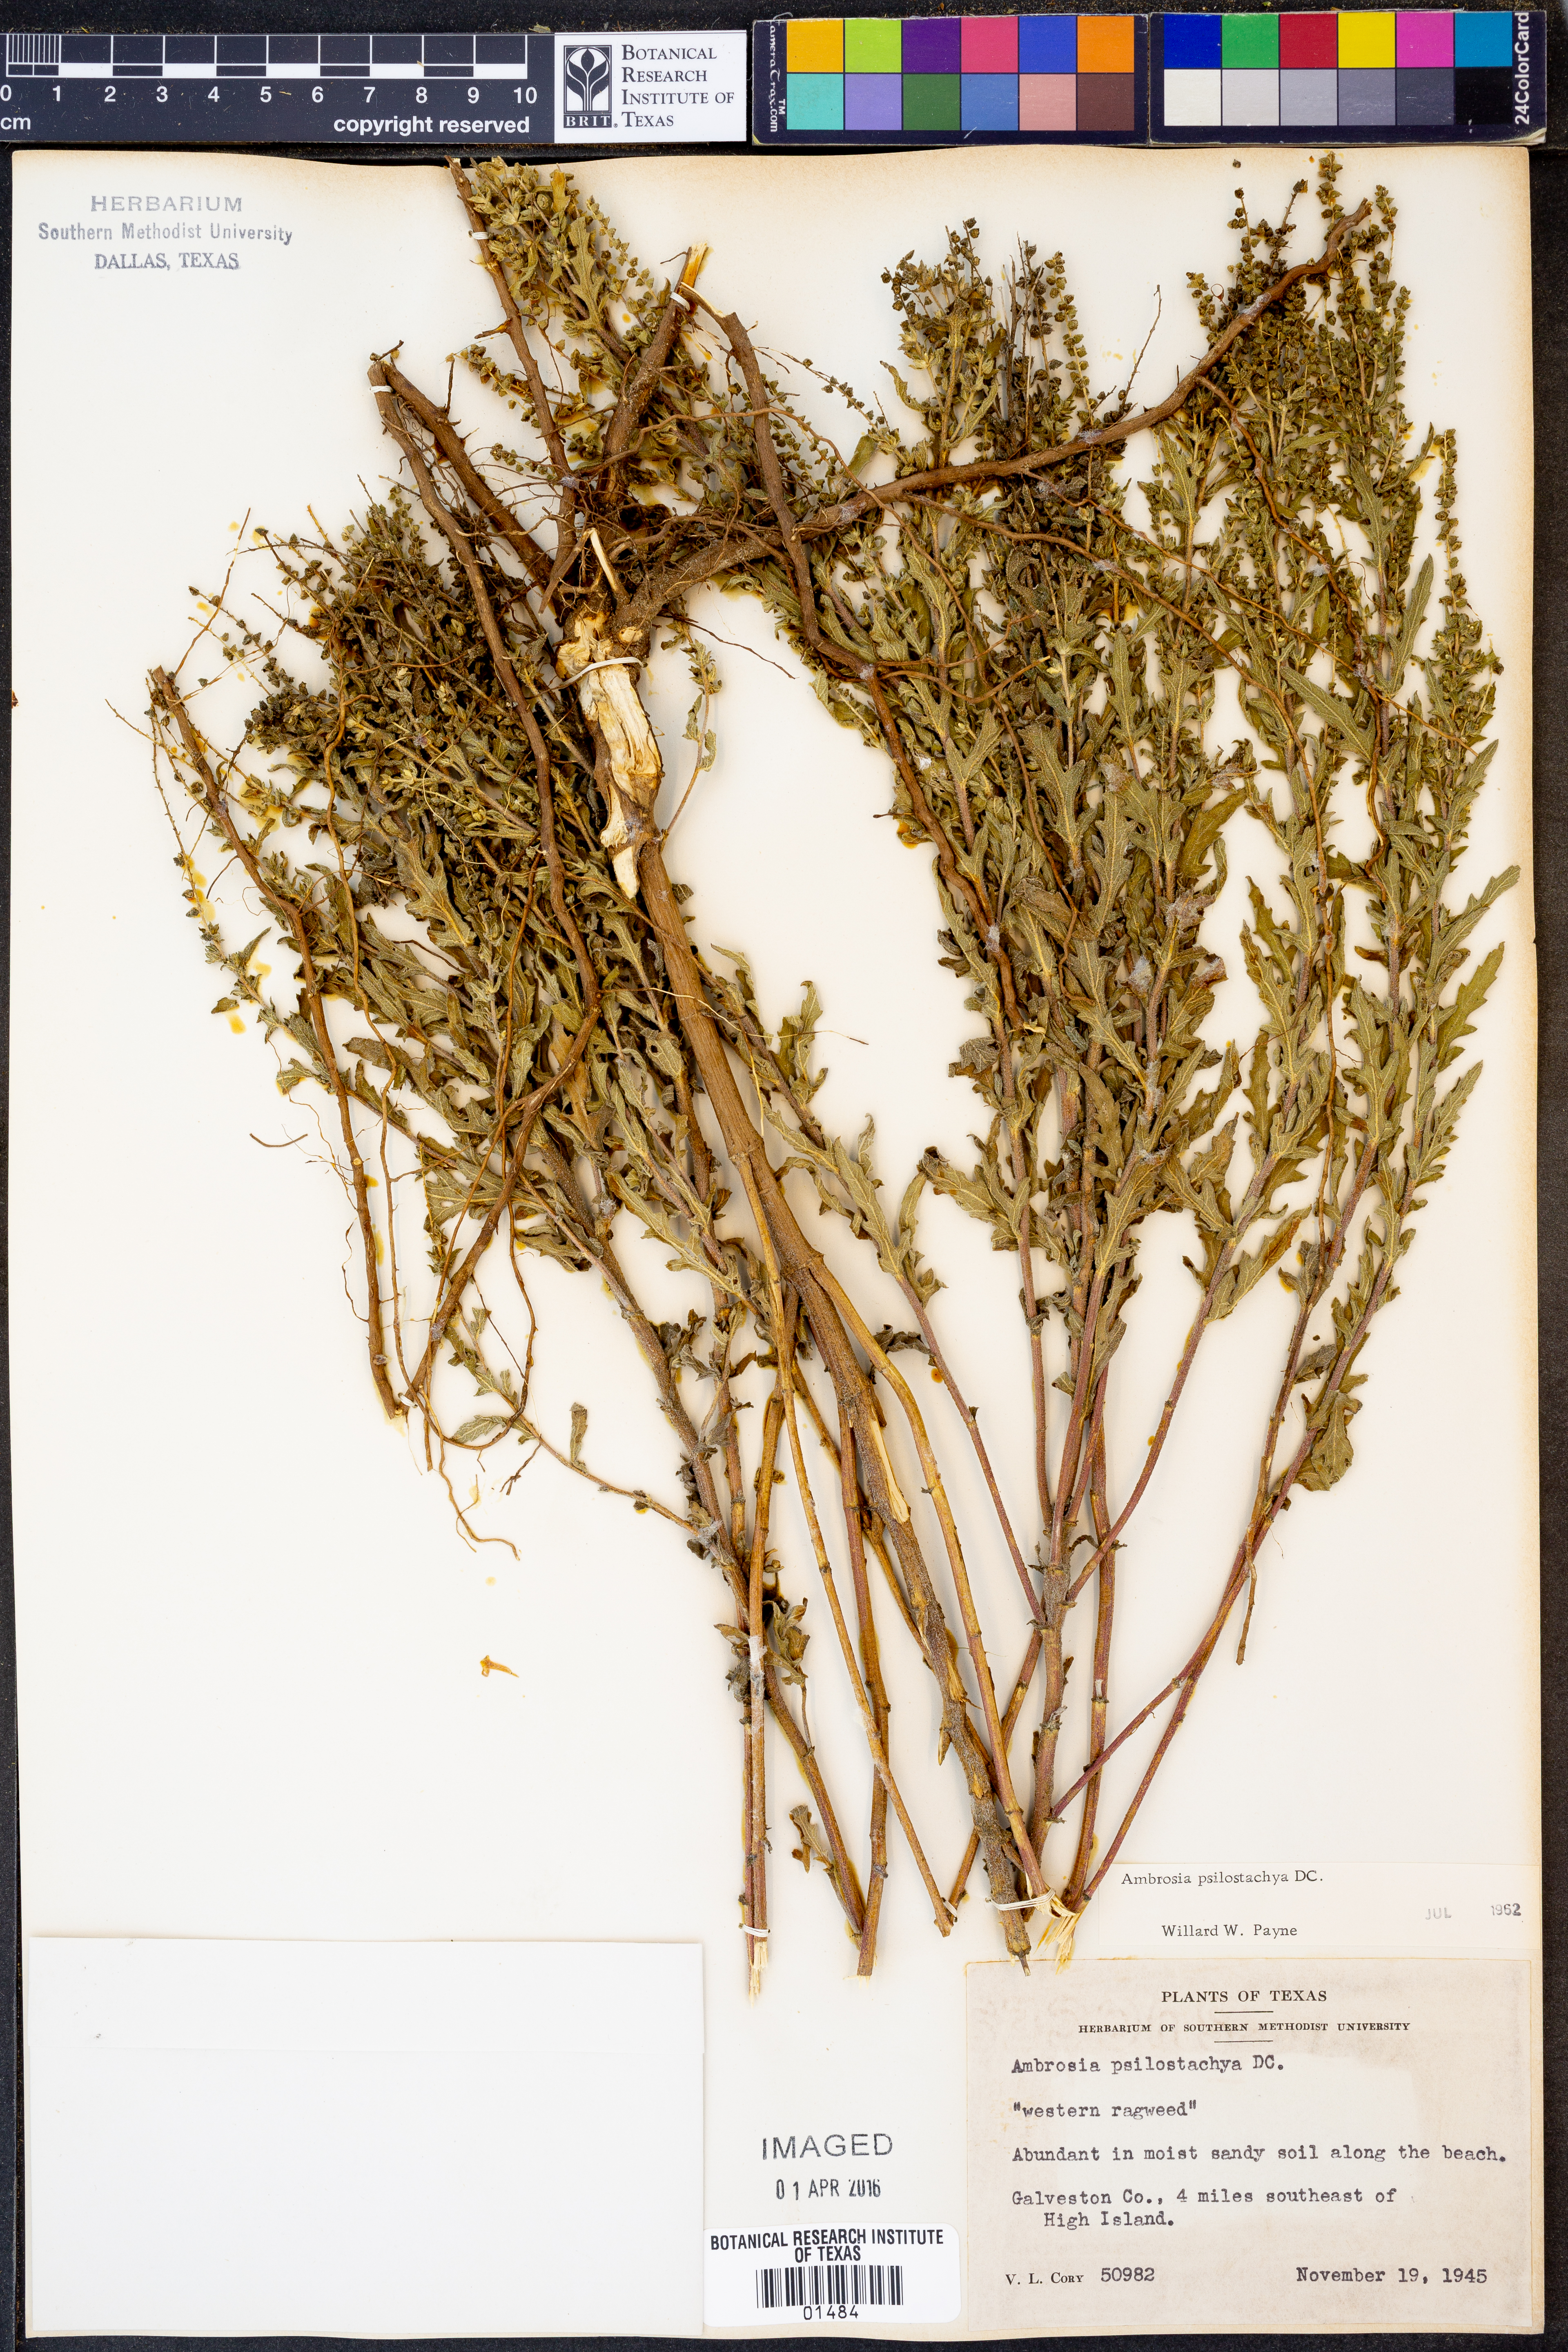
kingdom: Plantae
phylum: Tracheophyta
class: Magnoliopsida
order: Asterales
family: Asteraceae
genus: Ambrosia
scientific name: Ambrosia psilostachya
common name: Perennial ragweed
